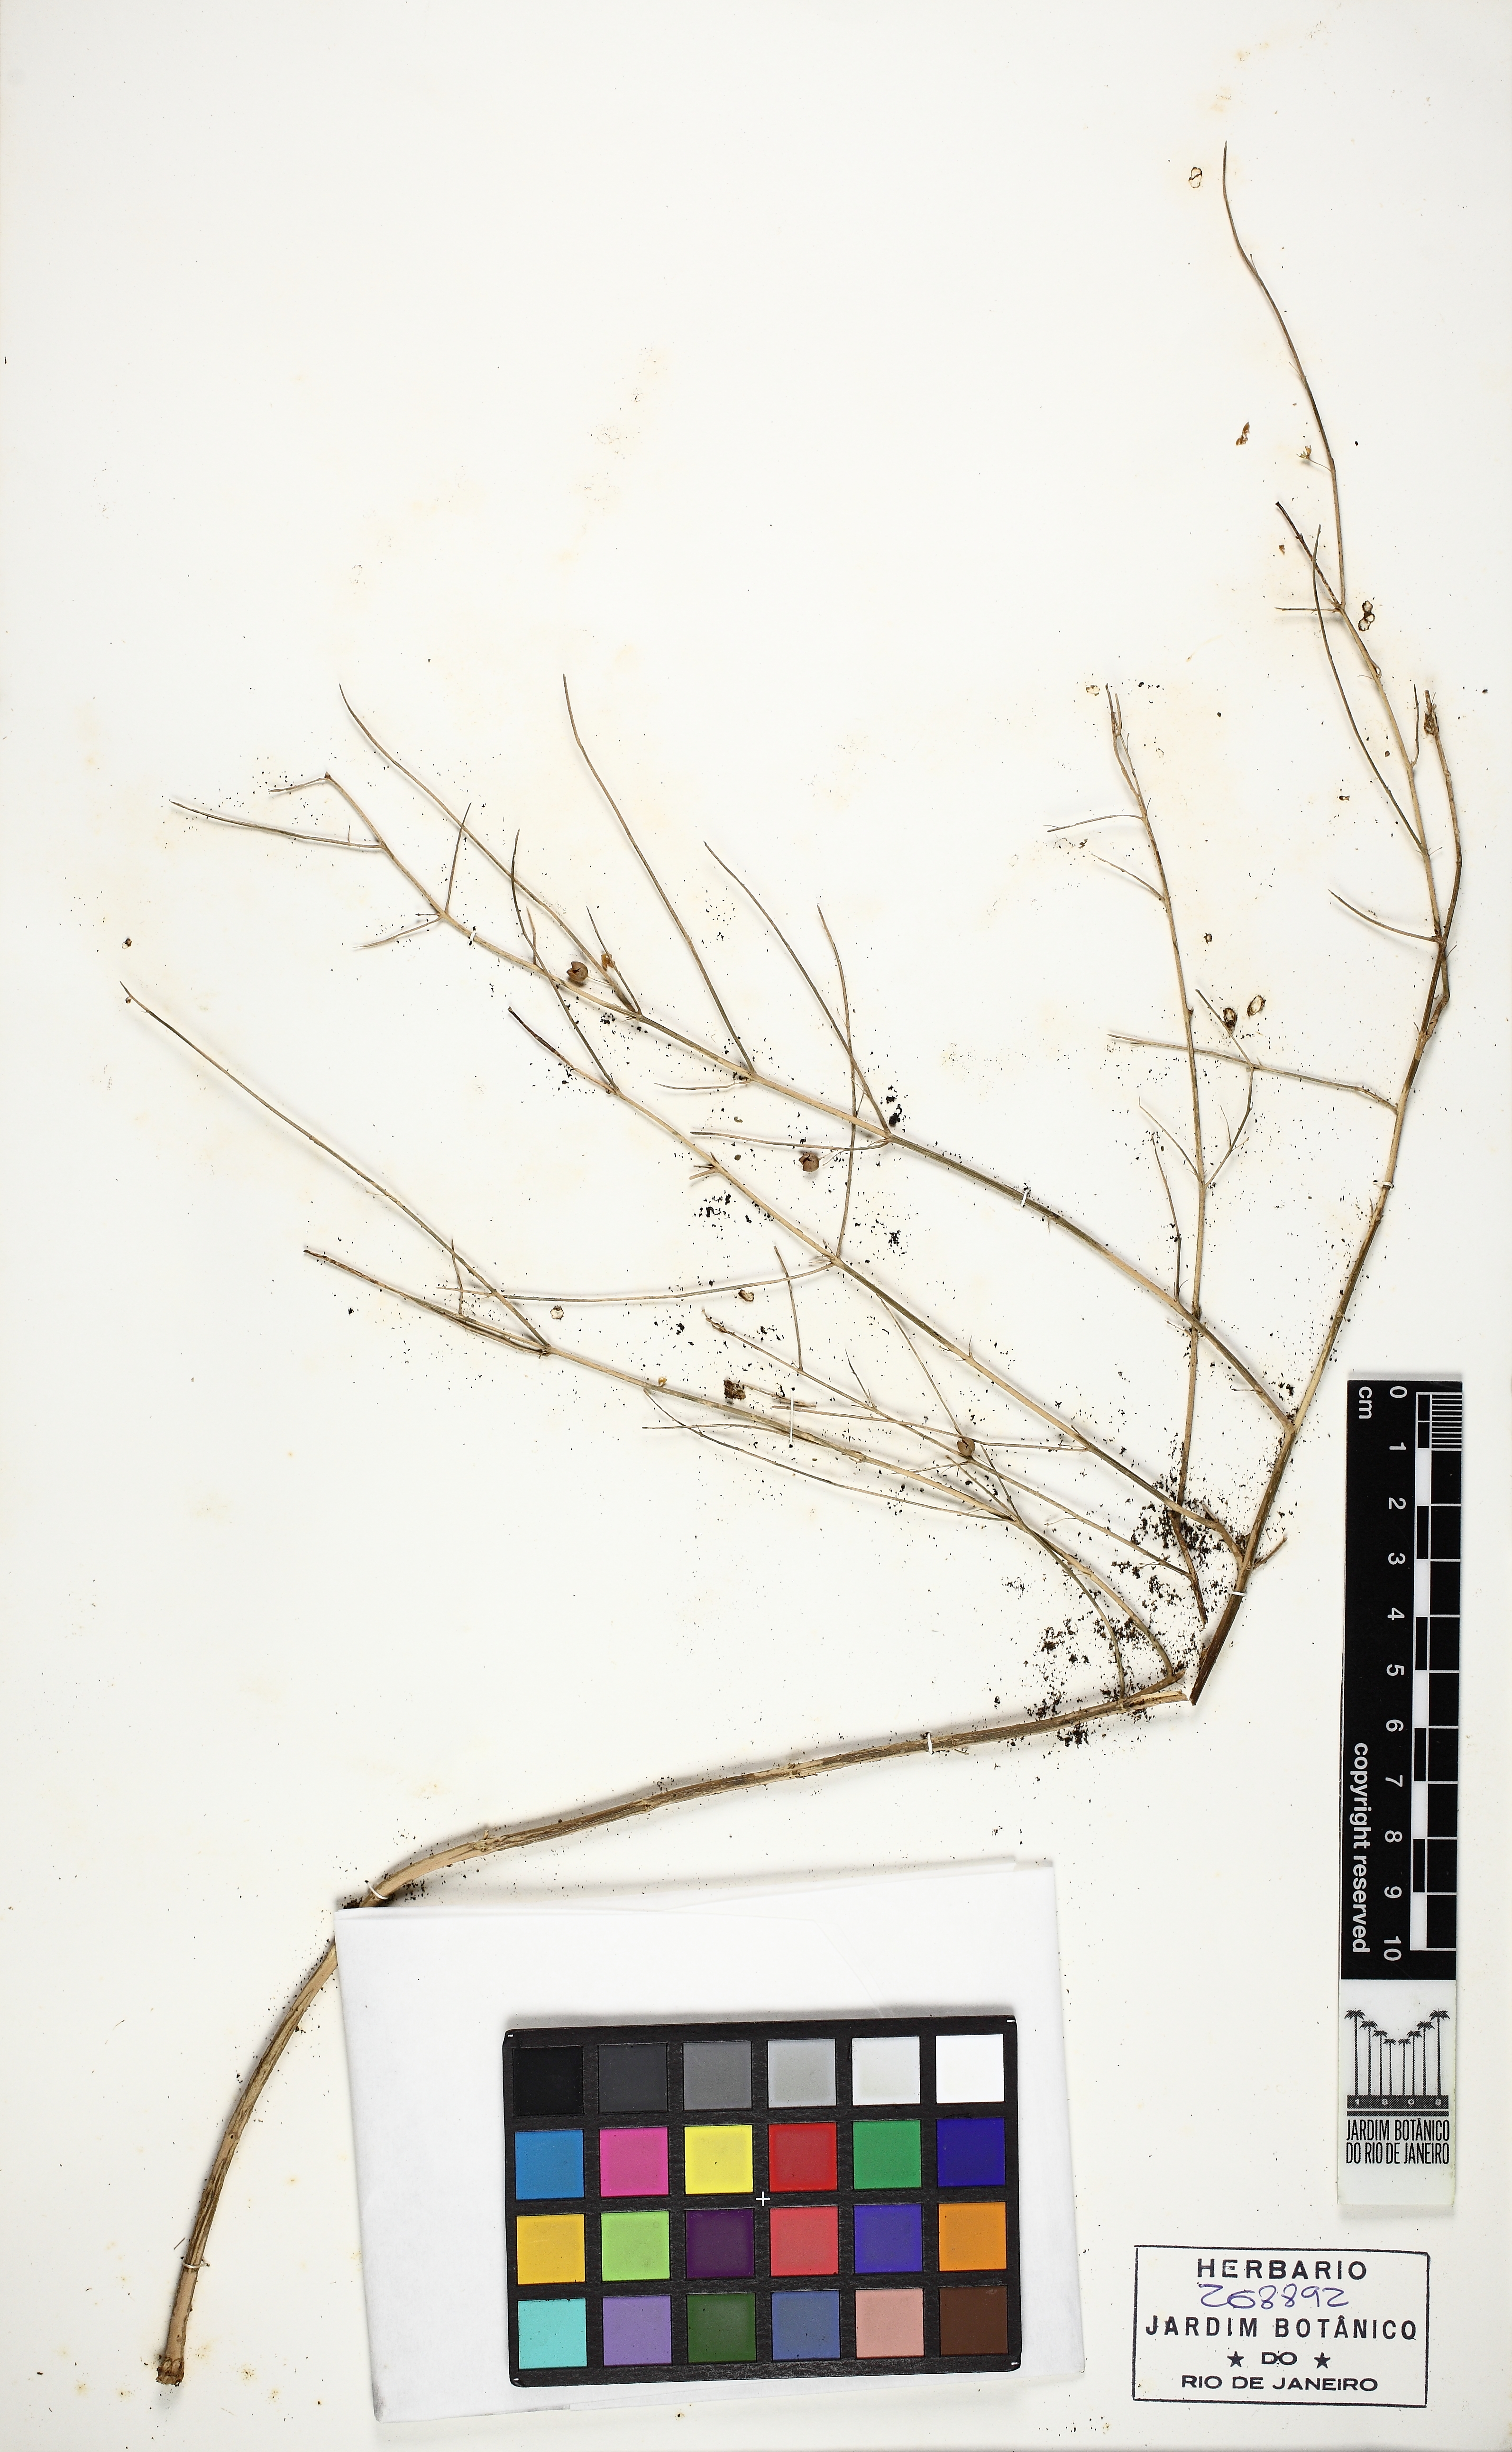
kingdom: Plantae
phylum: Tracheophyta
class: Magnoliopsida
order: Lamiales
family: Scrophulariaceae
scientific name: Scrophulariaceae
